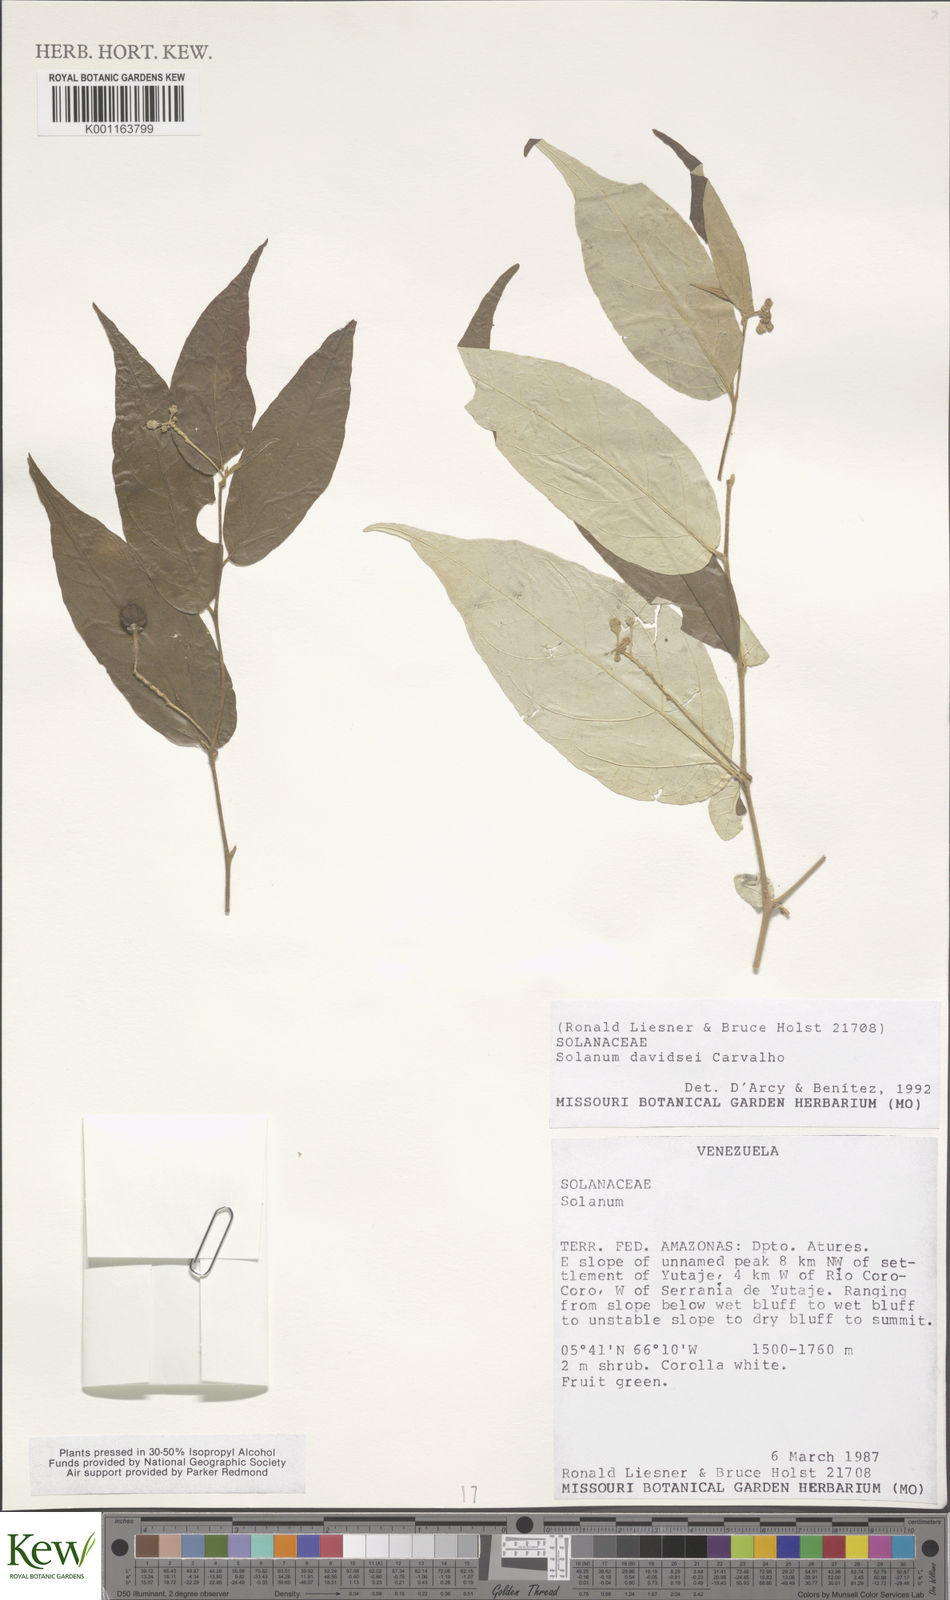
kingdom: Plantae
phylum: Tracheophyta
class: Magnoliopsida
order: Solanales
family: Solanaceae
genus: Solanum
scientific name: Solanum davidsei
